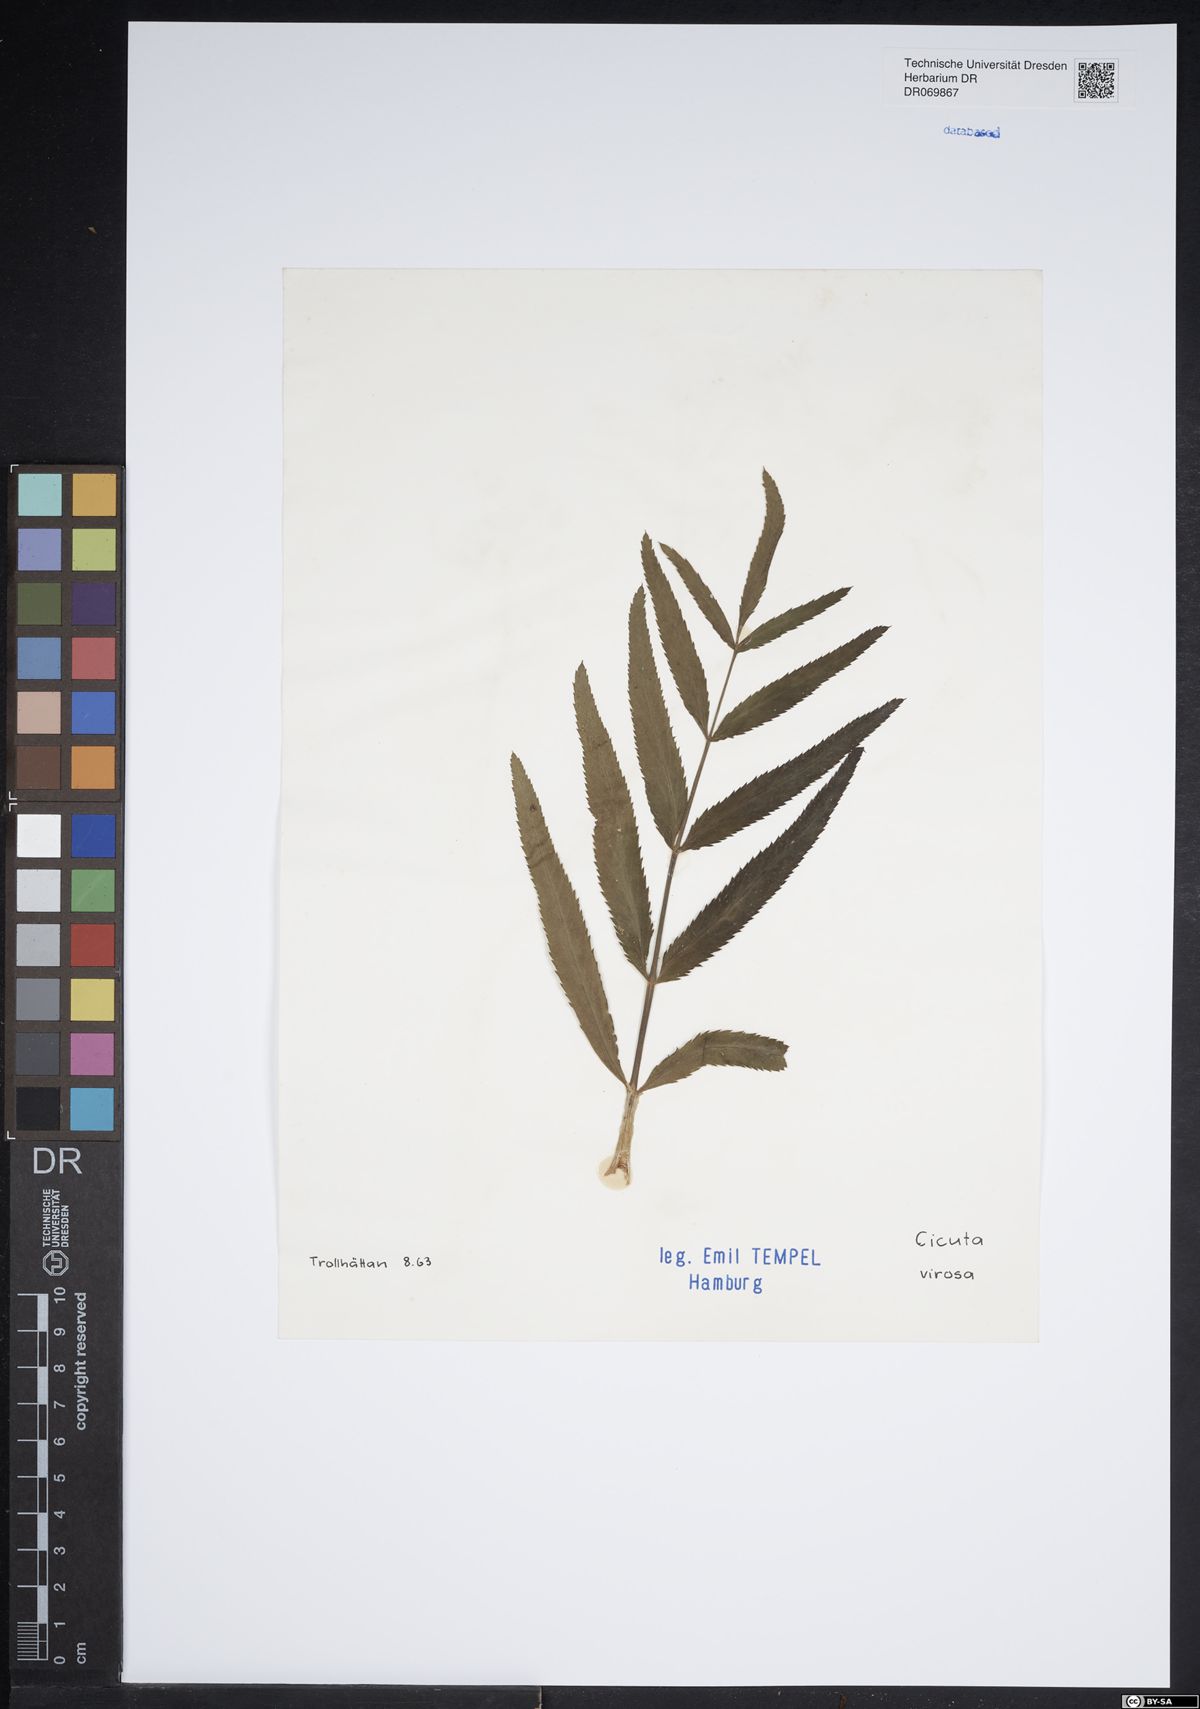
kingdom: Plantae
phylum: Tracheophyta
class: Magnoliopsida
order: Apiales
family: Apiaceae
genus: Cicuta
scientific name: Cicuta virosa
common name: Cowbane
